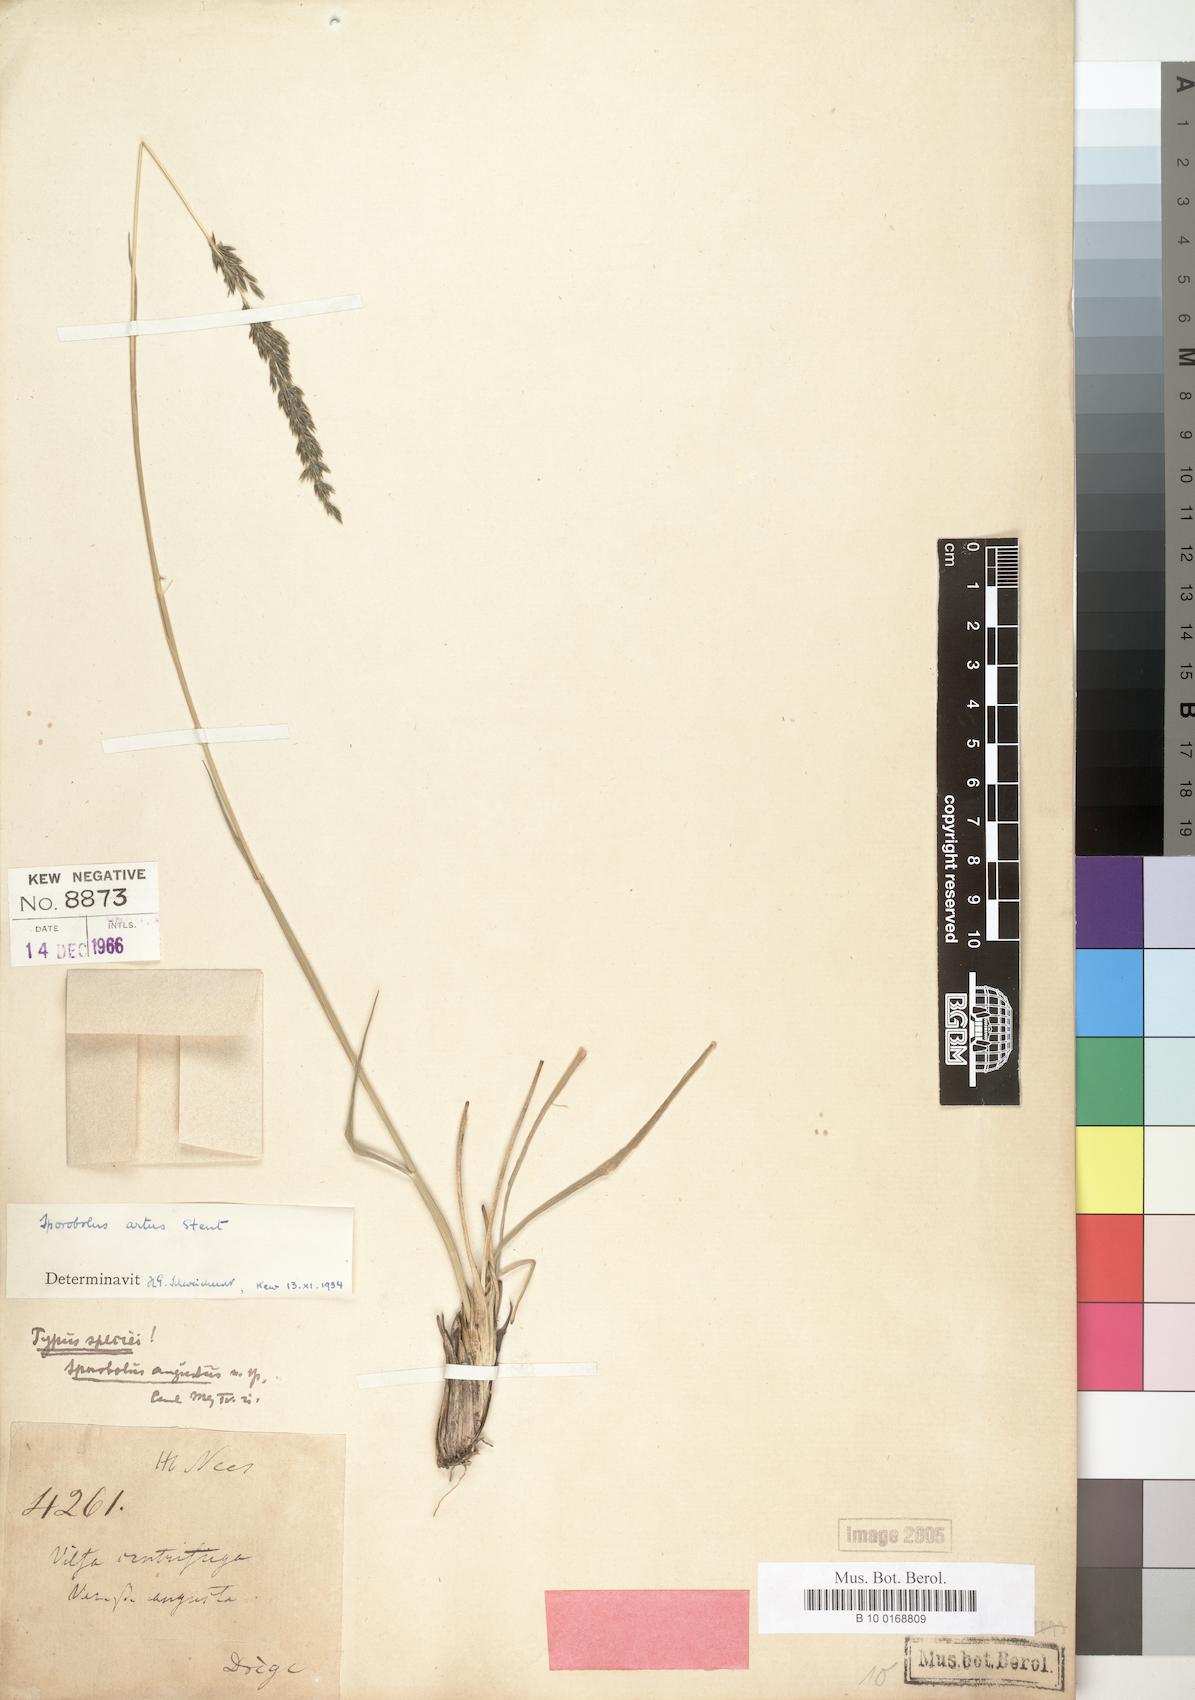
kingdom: Plantae
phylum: Tracheophyta
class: Liliopsida
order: Poales
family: Poaceae
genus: Sporobolus
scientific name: Sporobolus subulatus
